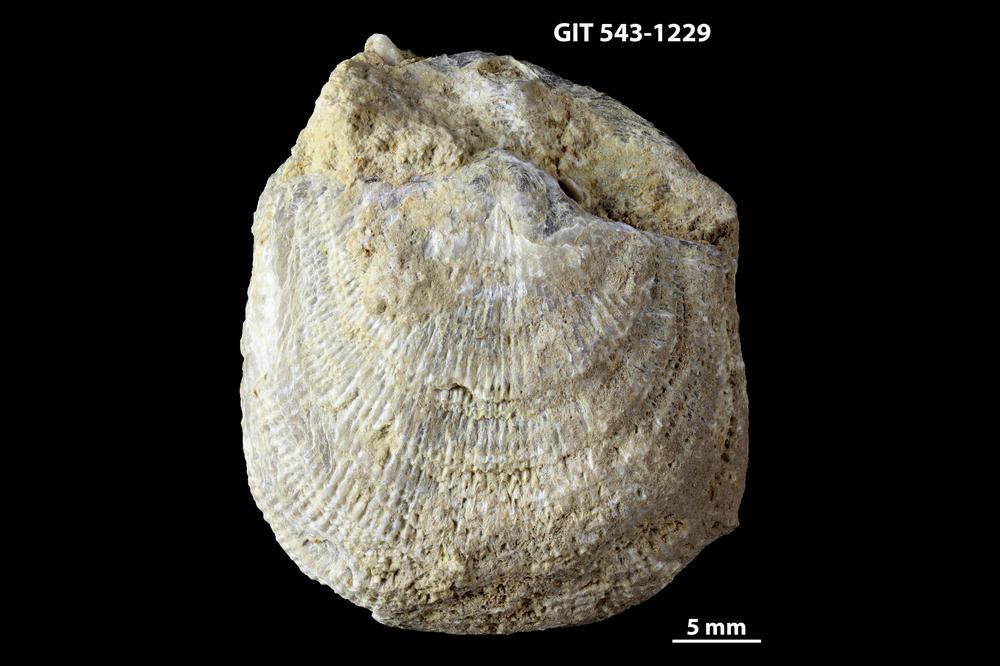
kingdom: Animalia
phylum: Brachiopoda
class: Rhynchonellata
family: Clitambonitidae
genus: Clinambon
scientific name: Clinambon
